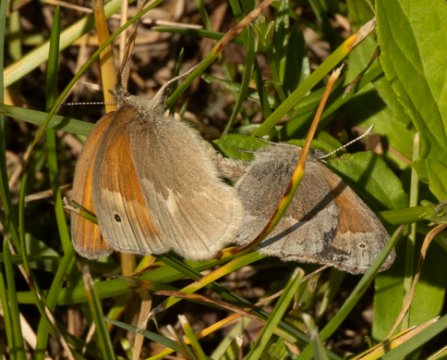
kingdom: Animalia
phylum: Arthropoda
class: Insecta
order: Lepidoptera
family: Nymphalidae
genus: Coenonympha
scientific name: Coenonympha tullia
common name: Large Heath
